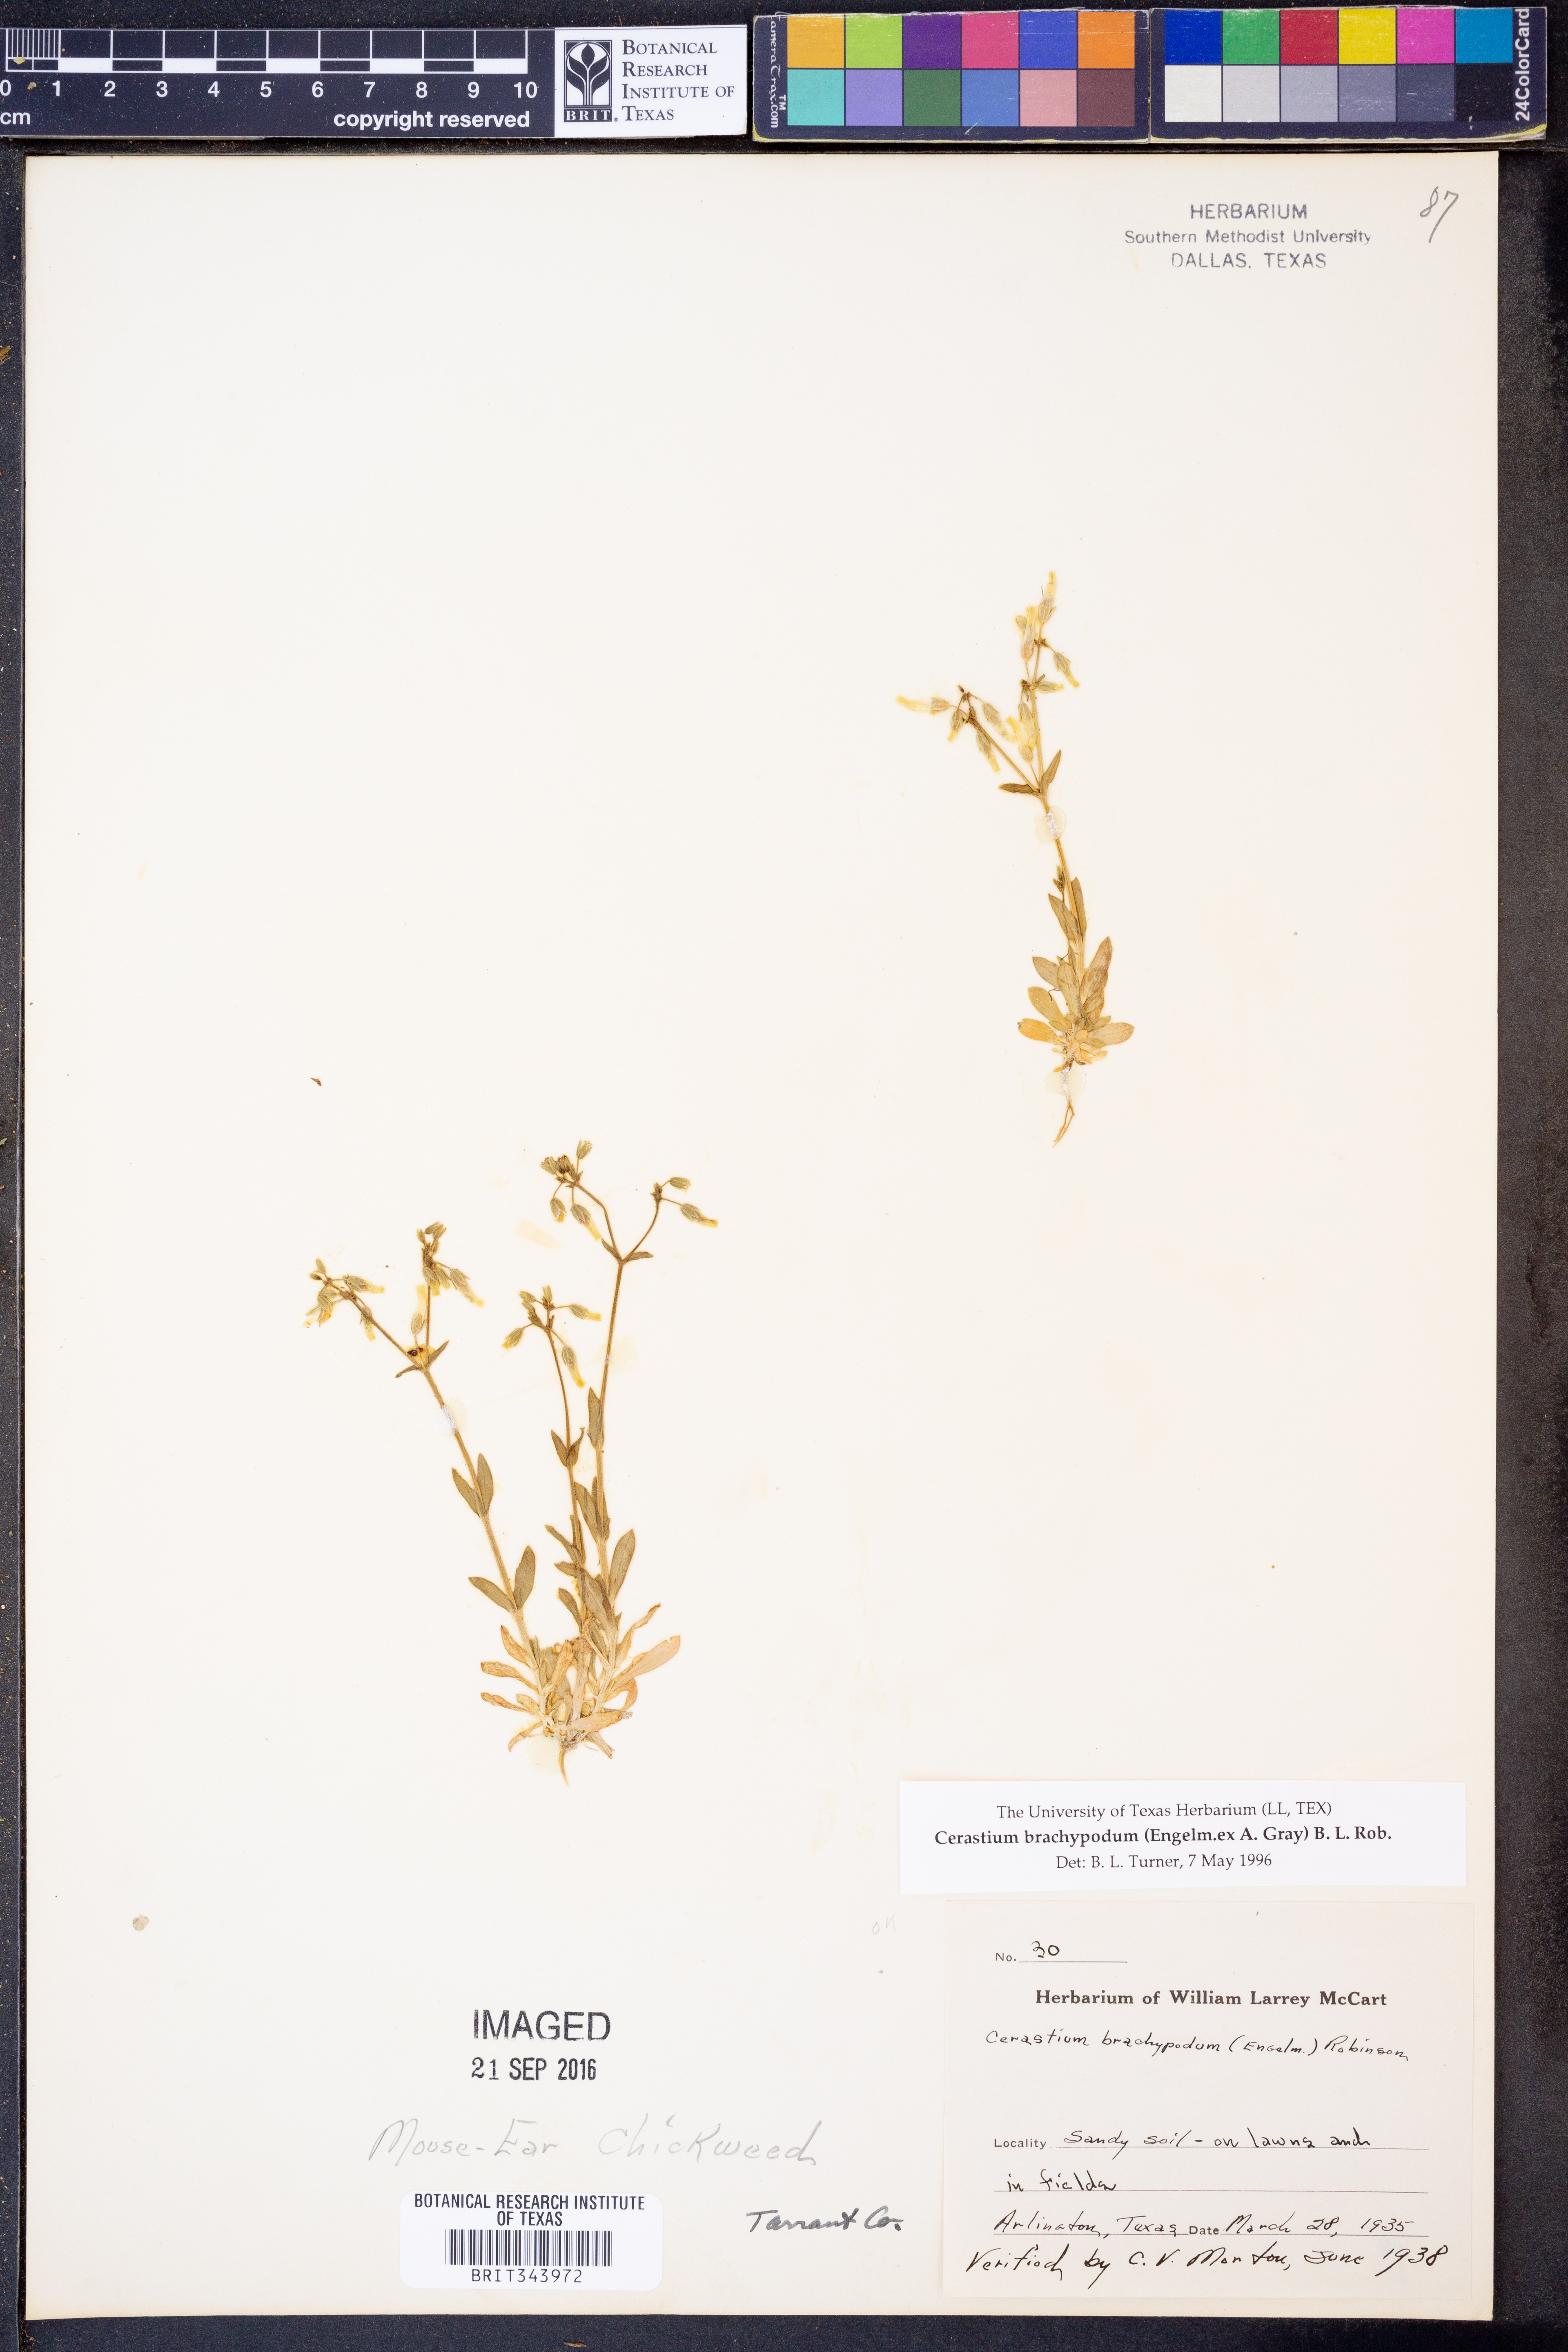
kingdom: Plantae
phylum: Tracheophyta
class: Magnoliopsida
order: Caryophyllales
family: Caryophyllaceae
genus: Cerastium
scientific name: Cerastium brachypodum
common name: Short-pedicelled nodding chickweed
